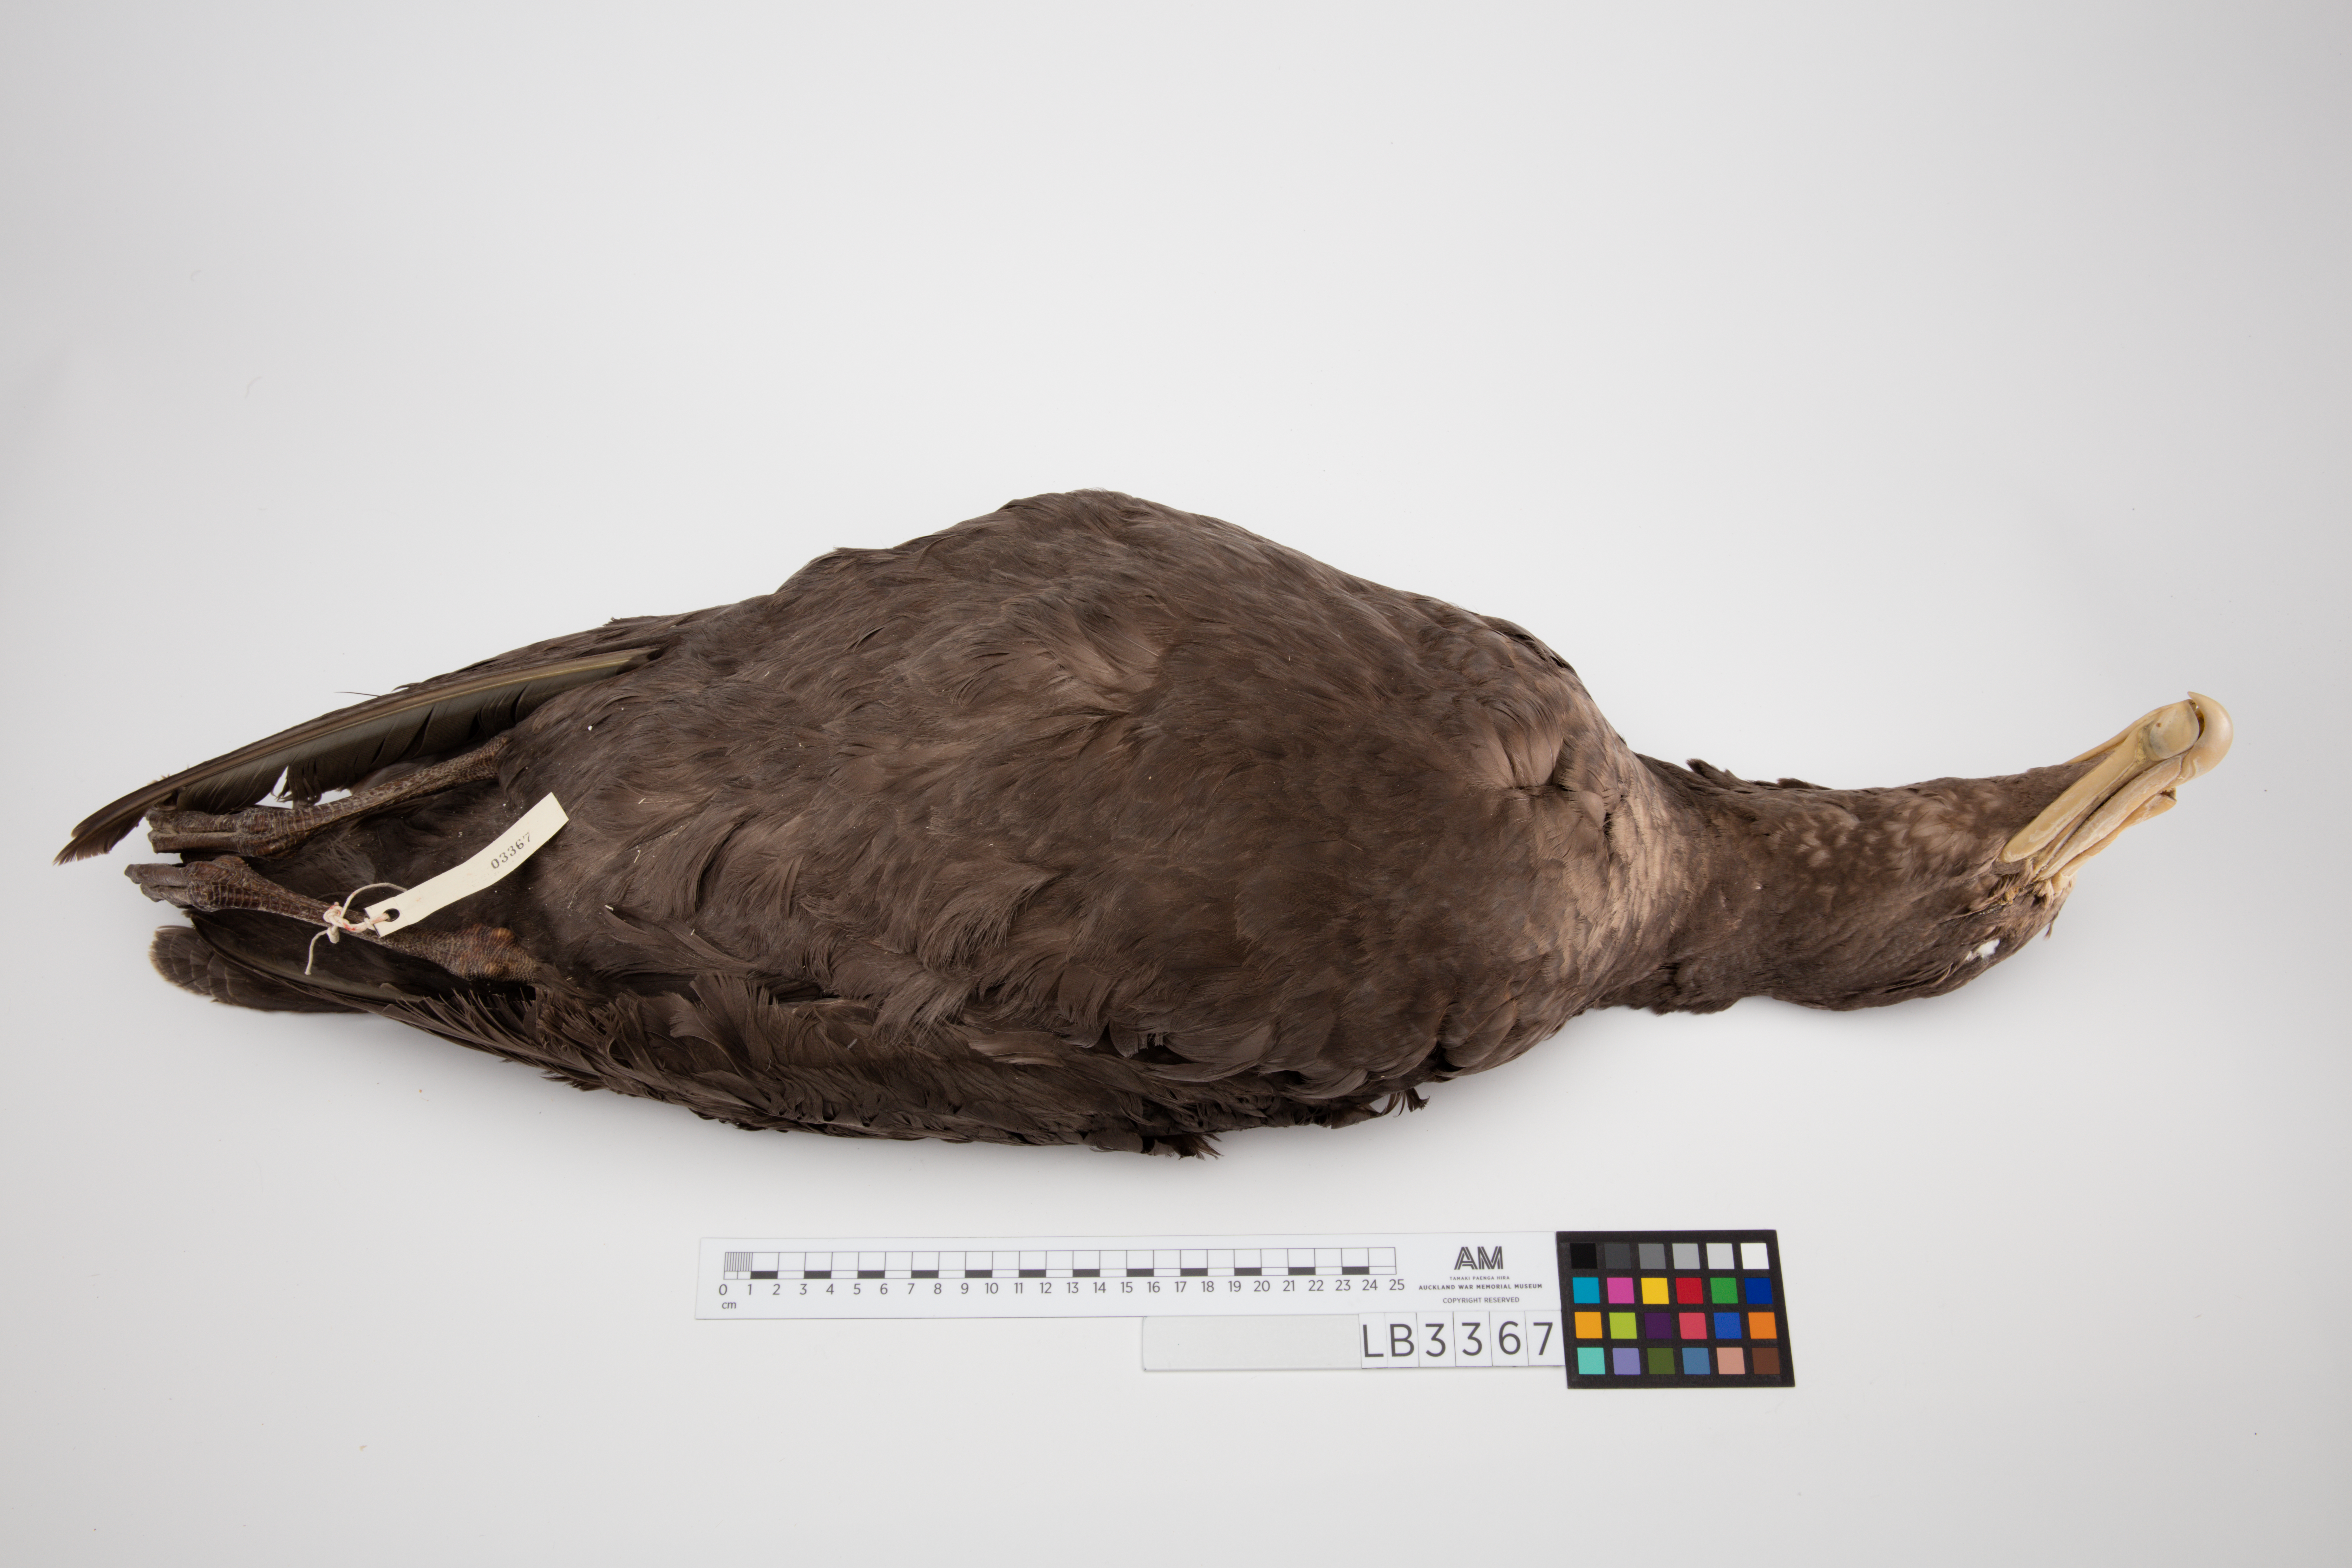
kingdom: Animalia
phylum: Chordata
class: Aves
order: Procellariiformes
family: Procellariidae
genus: Macronectes
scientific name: Macronectes halli
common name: Northern giant petrel
